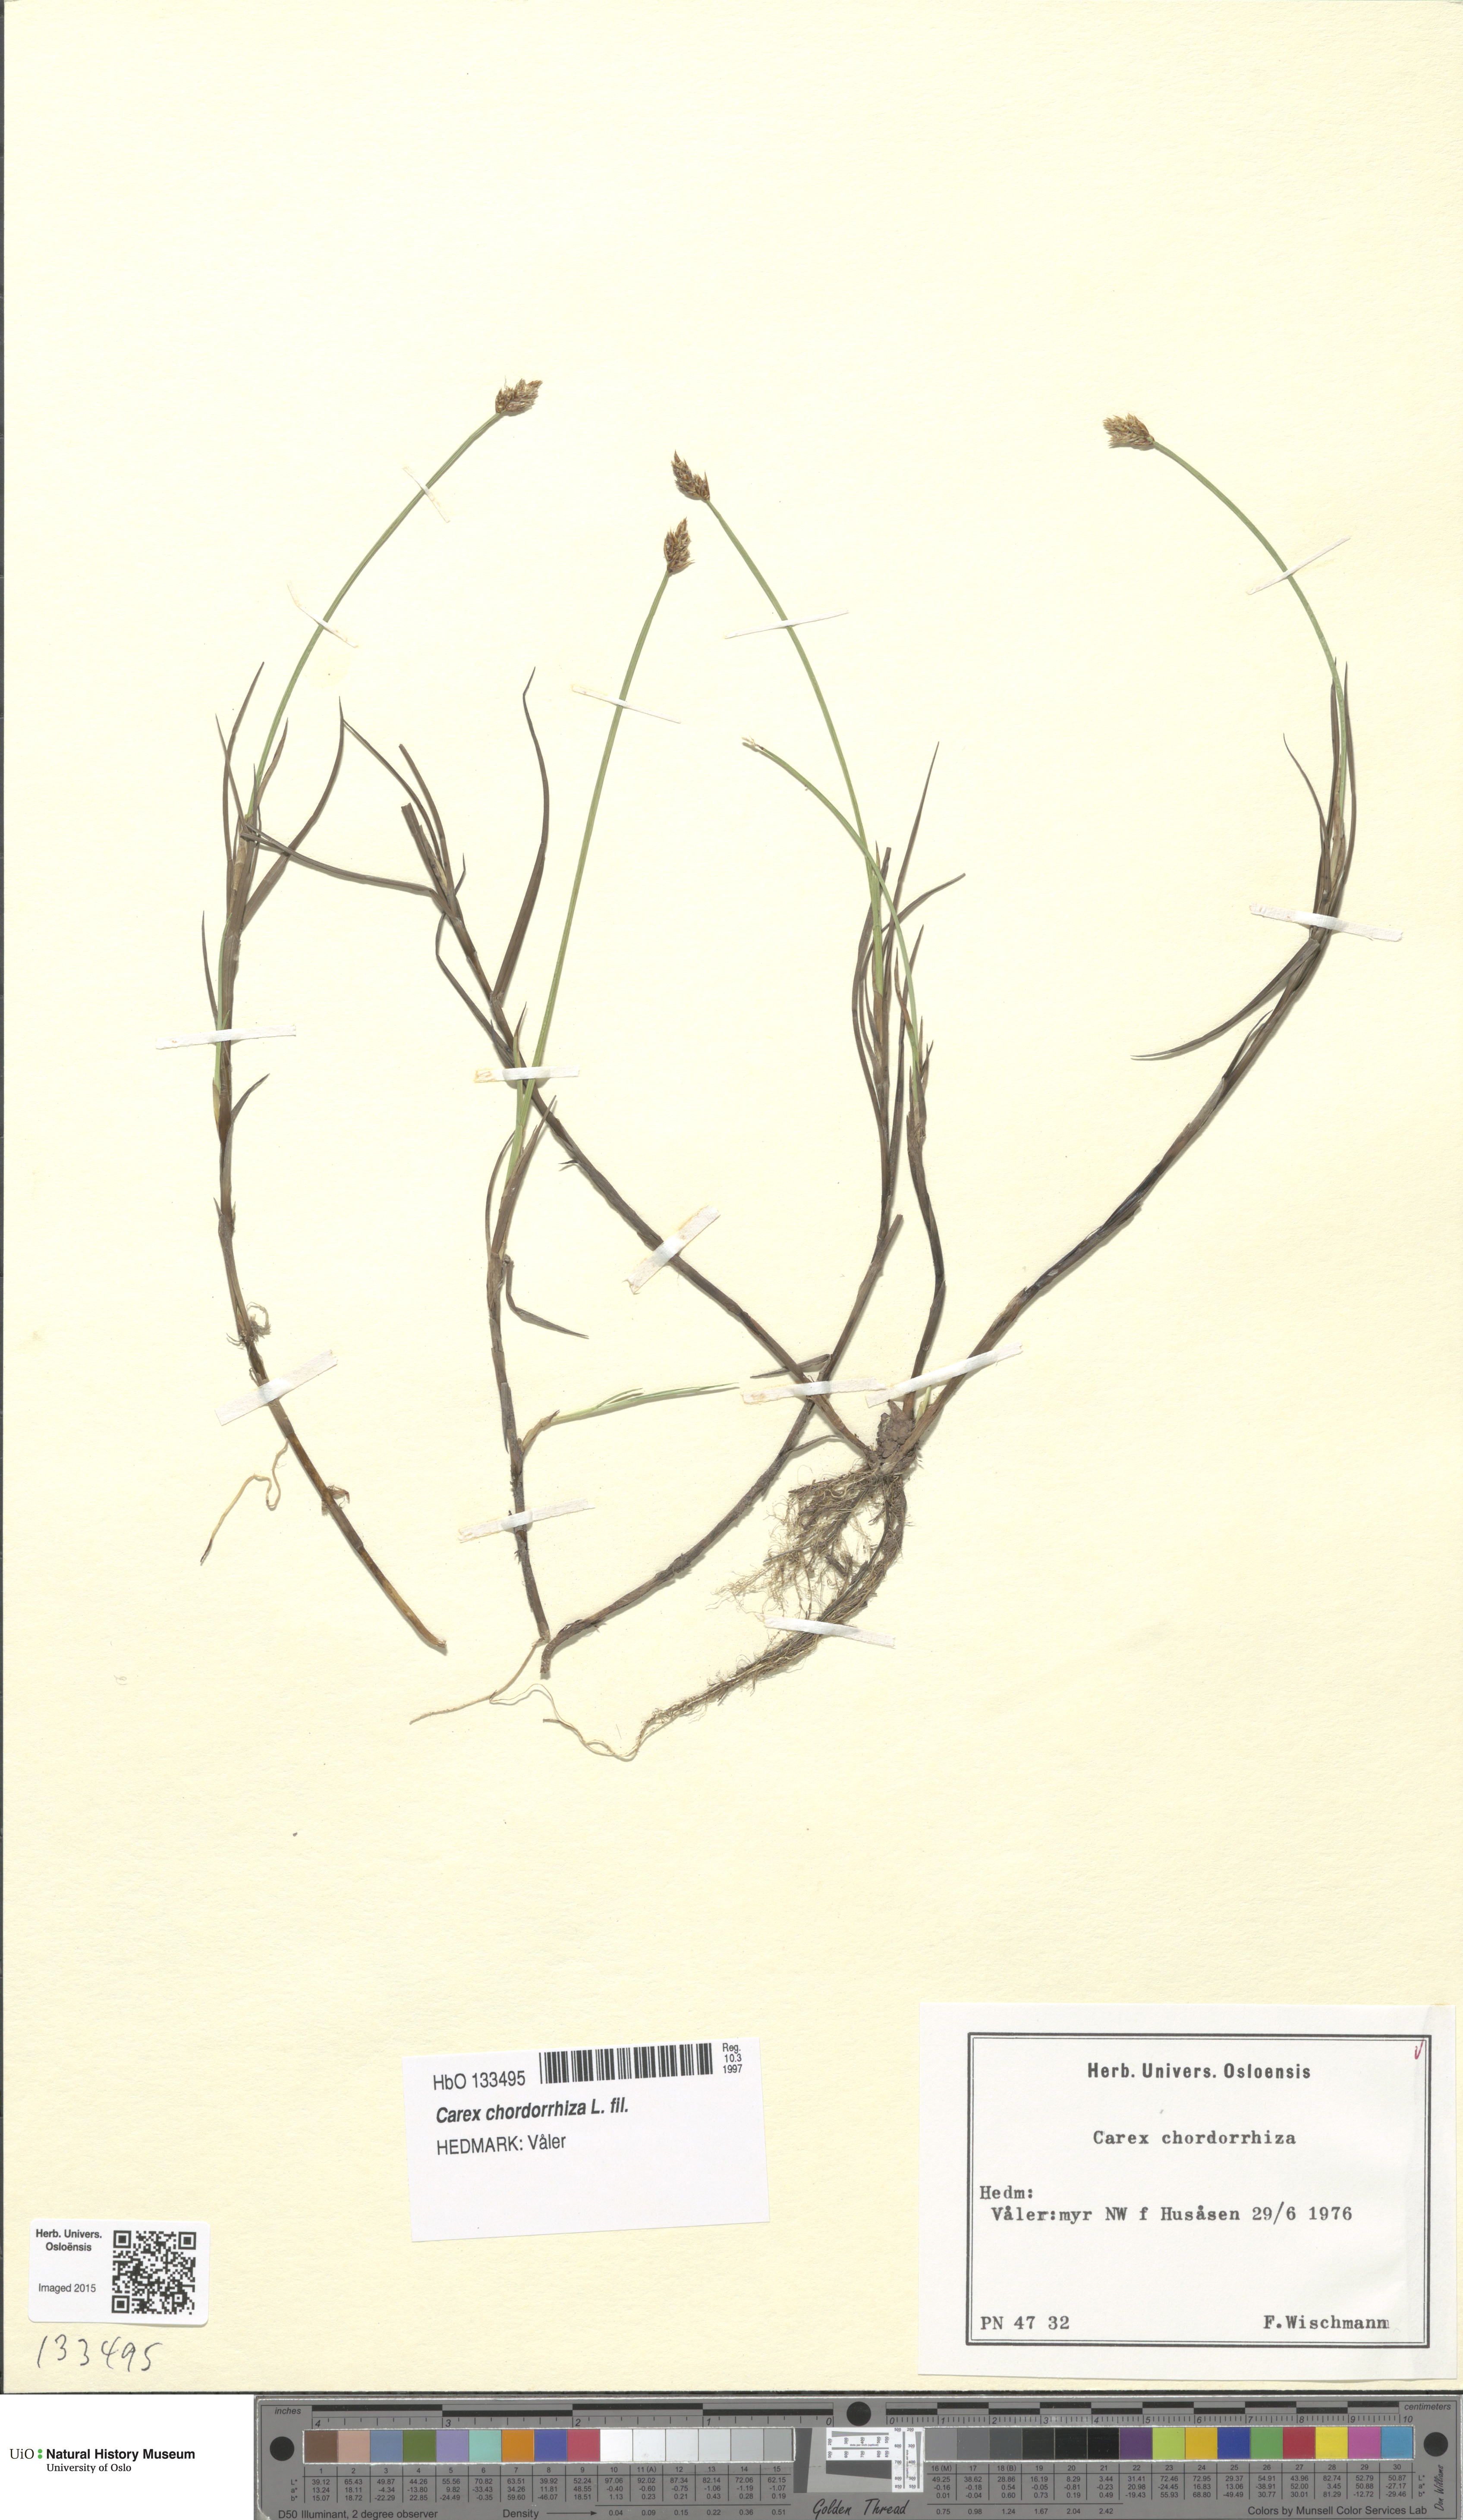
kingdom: Plantae
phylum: Tracheophyta
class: Liliopsida
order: Poales
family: Cyperaceae
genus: Carex
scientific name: Carex chordorrhiza
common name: String sedge
